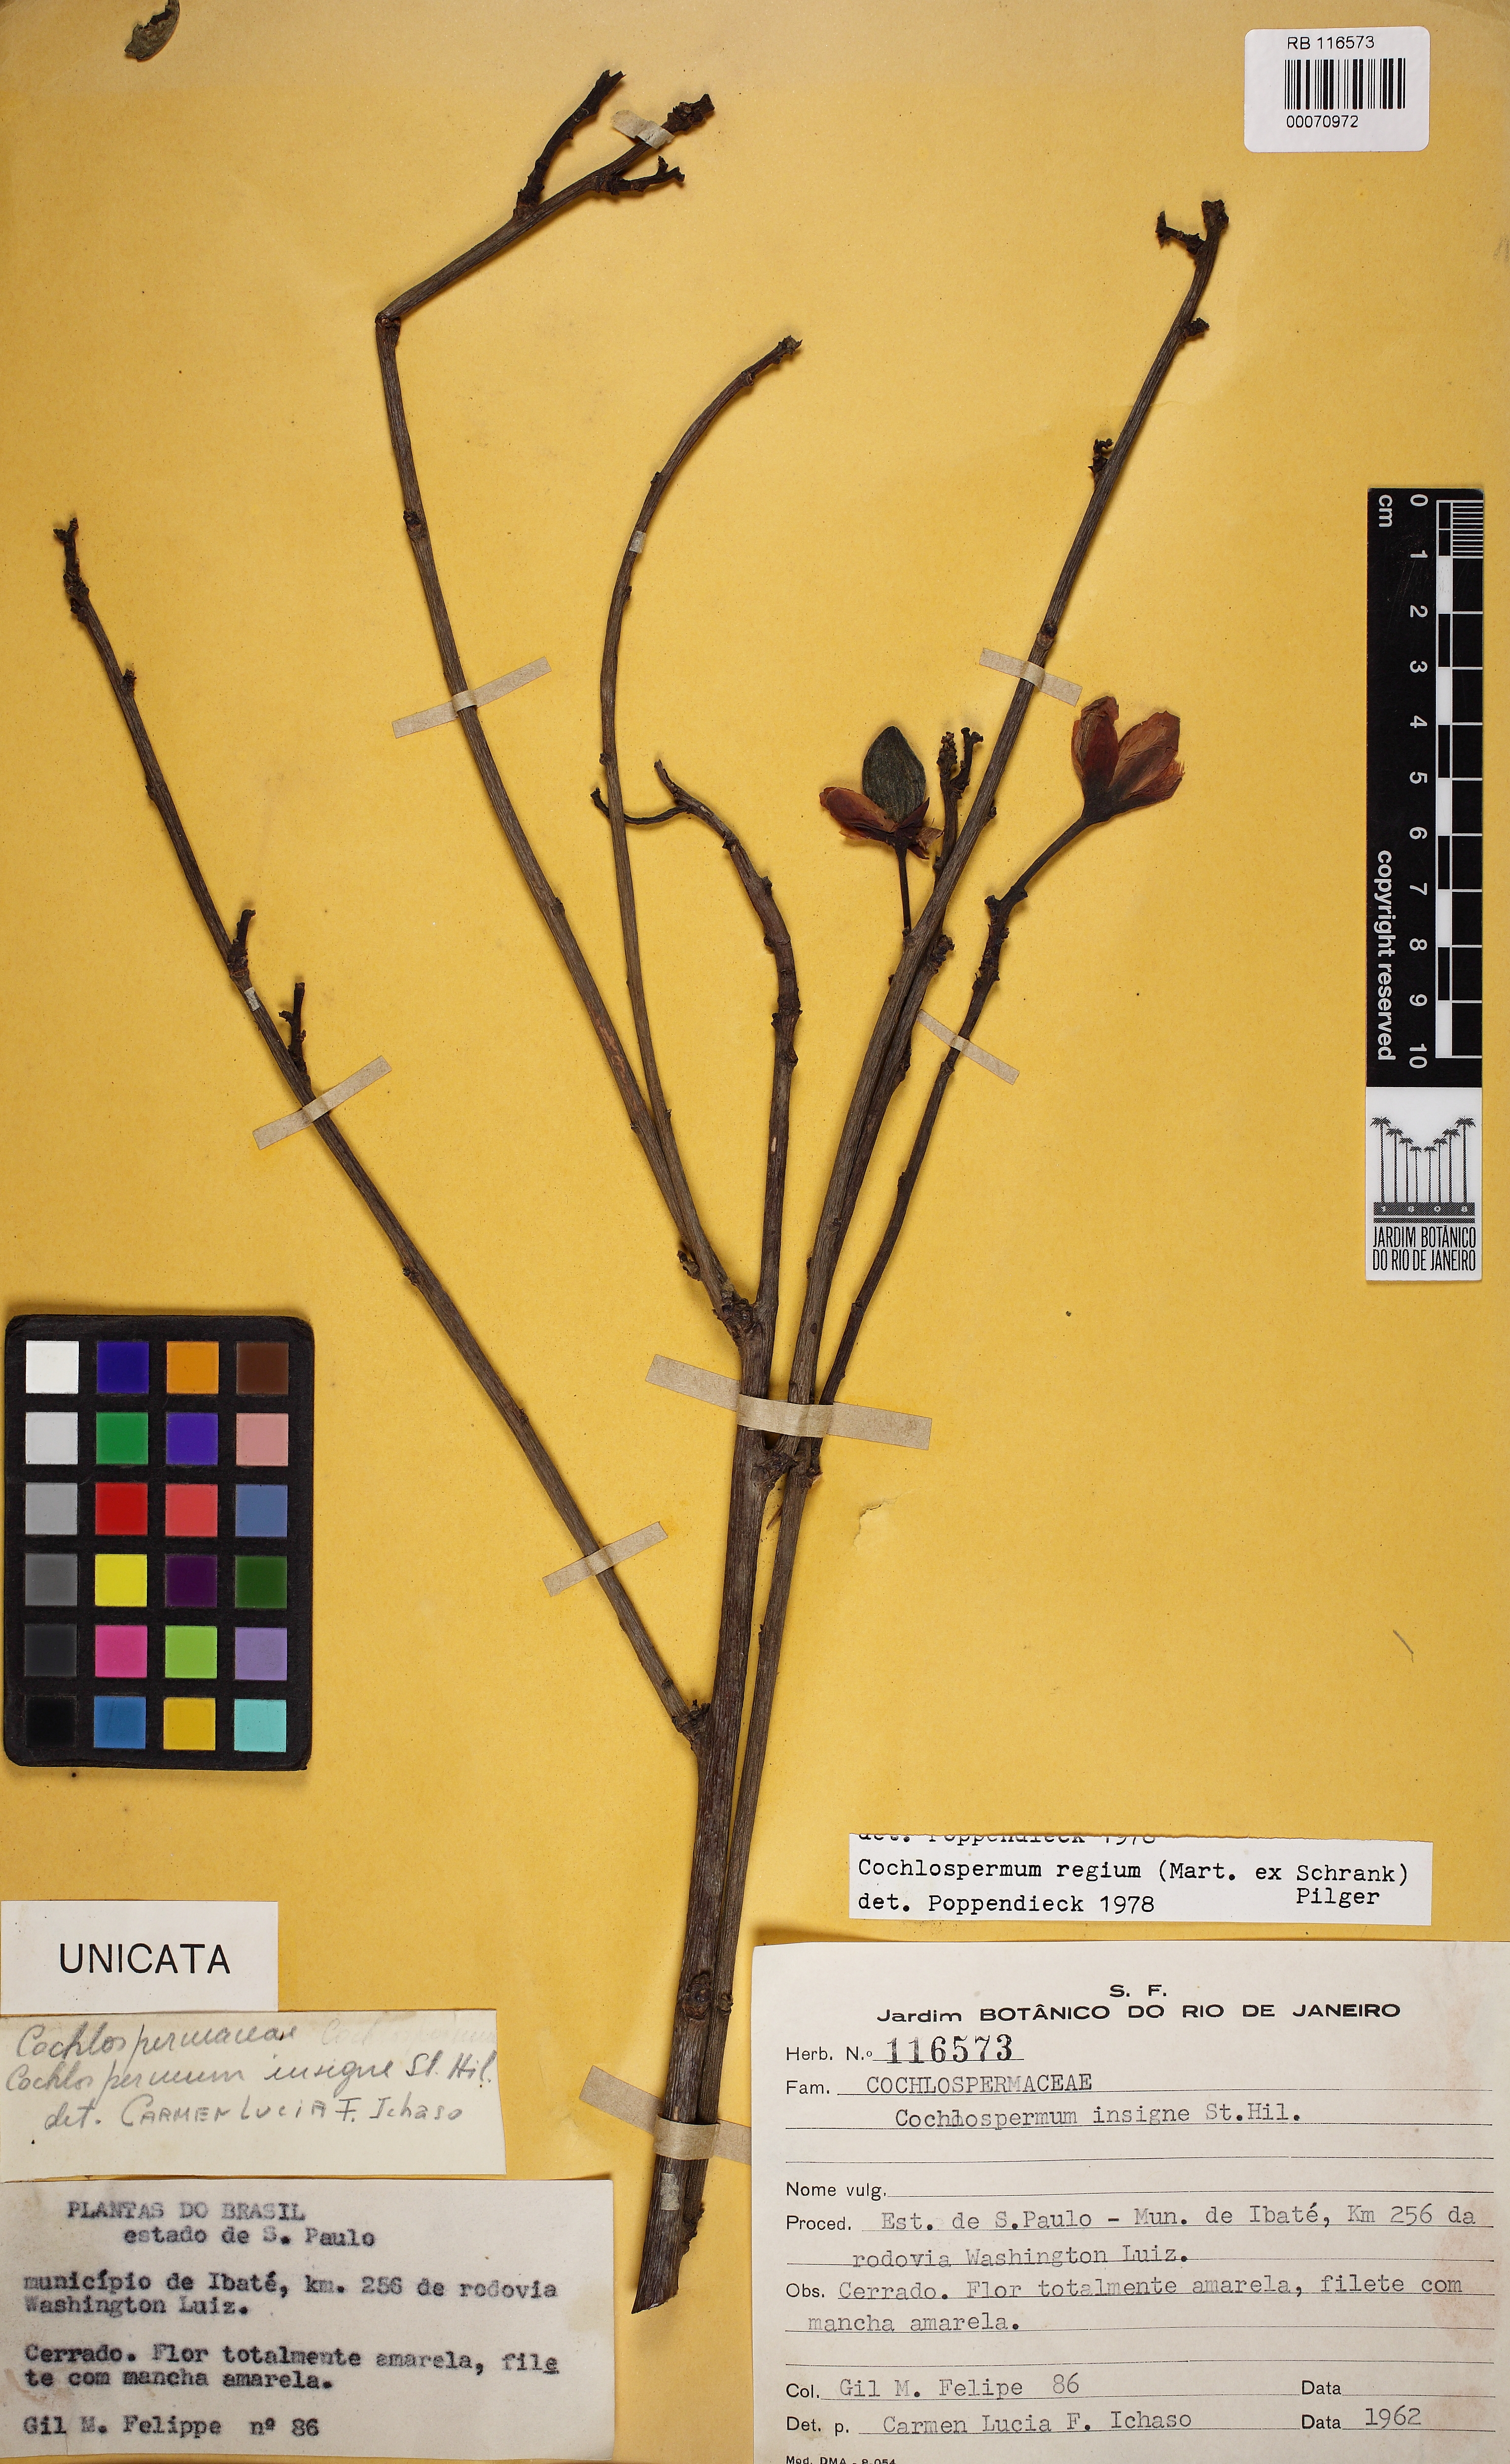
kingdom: Plantae
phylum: Tracheophyta
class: Magnoliopsida
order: Malvales
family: Cochlospermaceae
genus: Cochlospermum
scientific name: Cochlospermum regium
